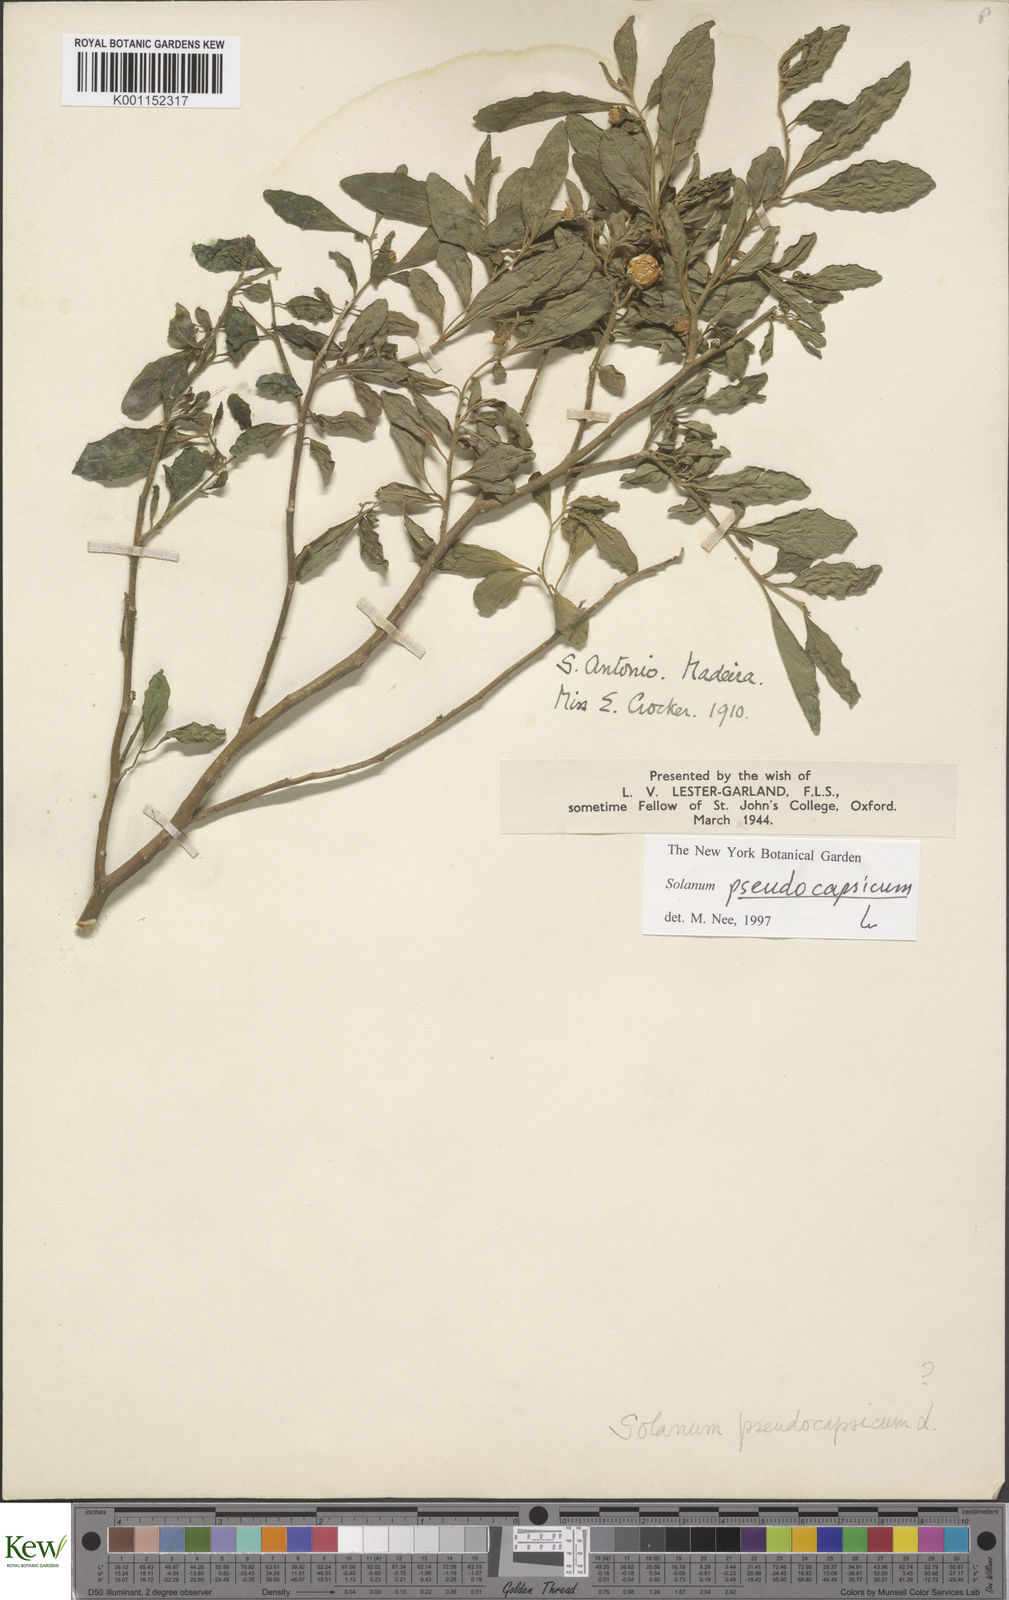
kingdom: Plantae
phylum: Tracheophyta
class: Magnoliopsida
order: Solanales
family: Solanaceae
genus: Solanum
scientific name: Solanum pseudocapsicum
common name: Jerusalem cherry
